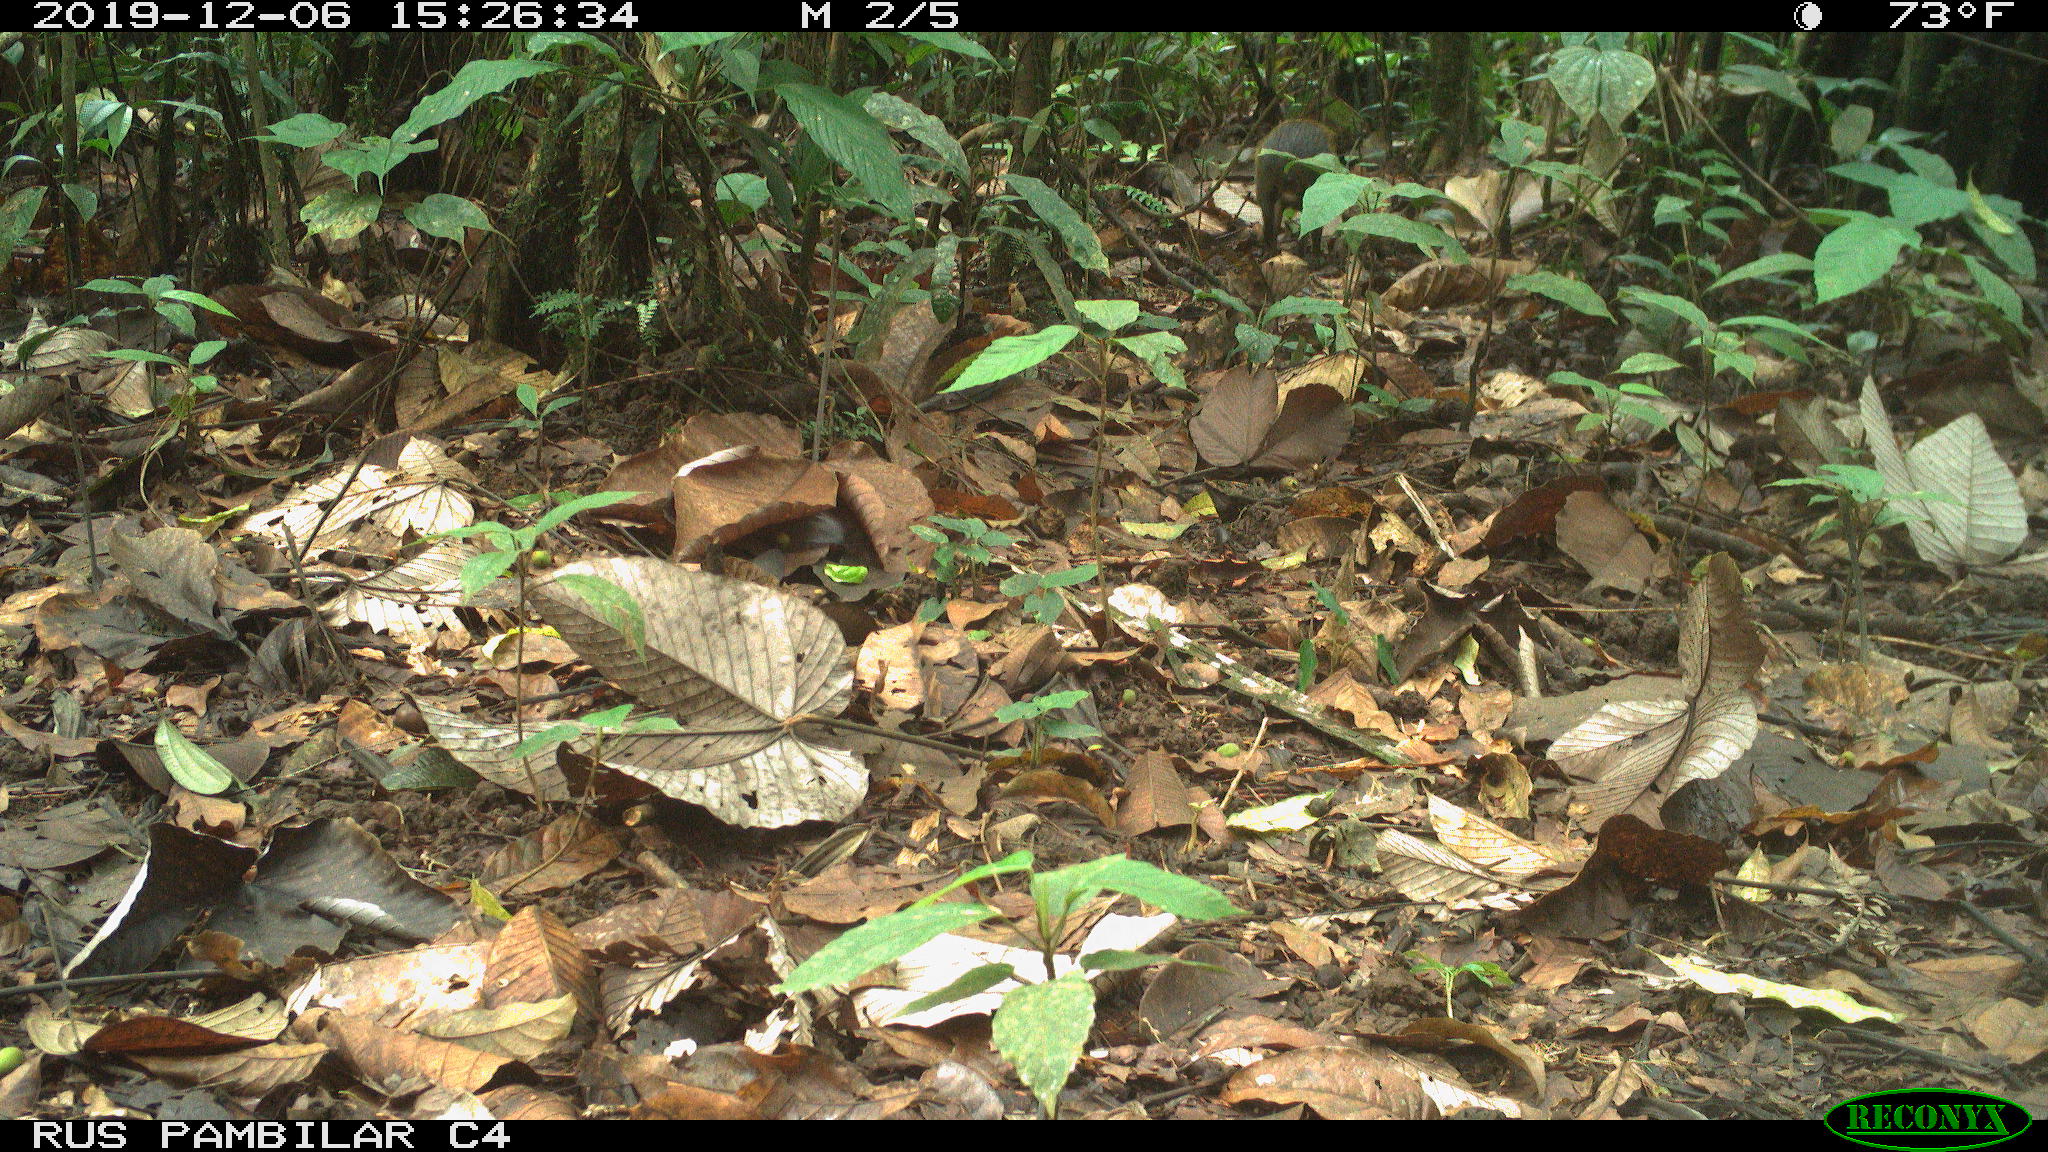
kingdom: Animalia
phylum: Chordata
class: Mammalia
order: Rodentia
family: Dasyproctidae
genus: Dasyprocta
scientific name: Dasyprocta punctata
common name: Central american agouti
